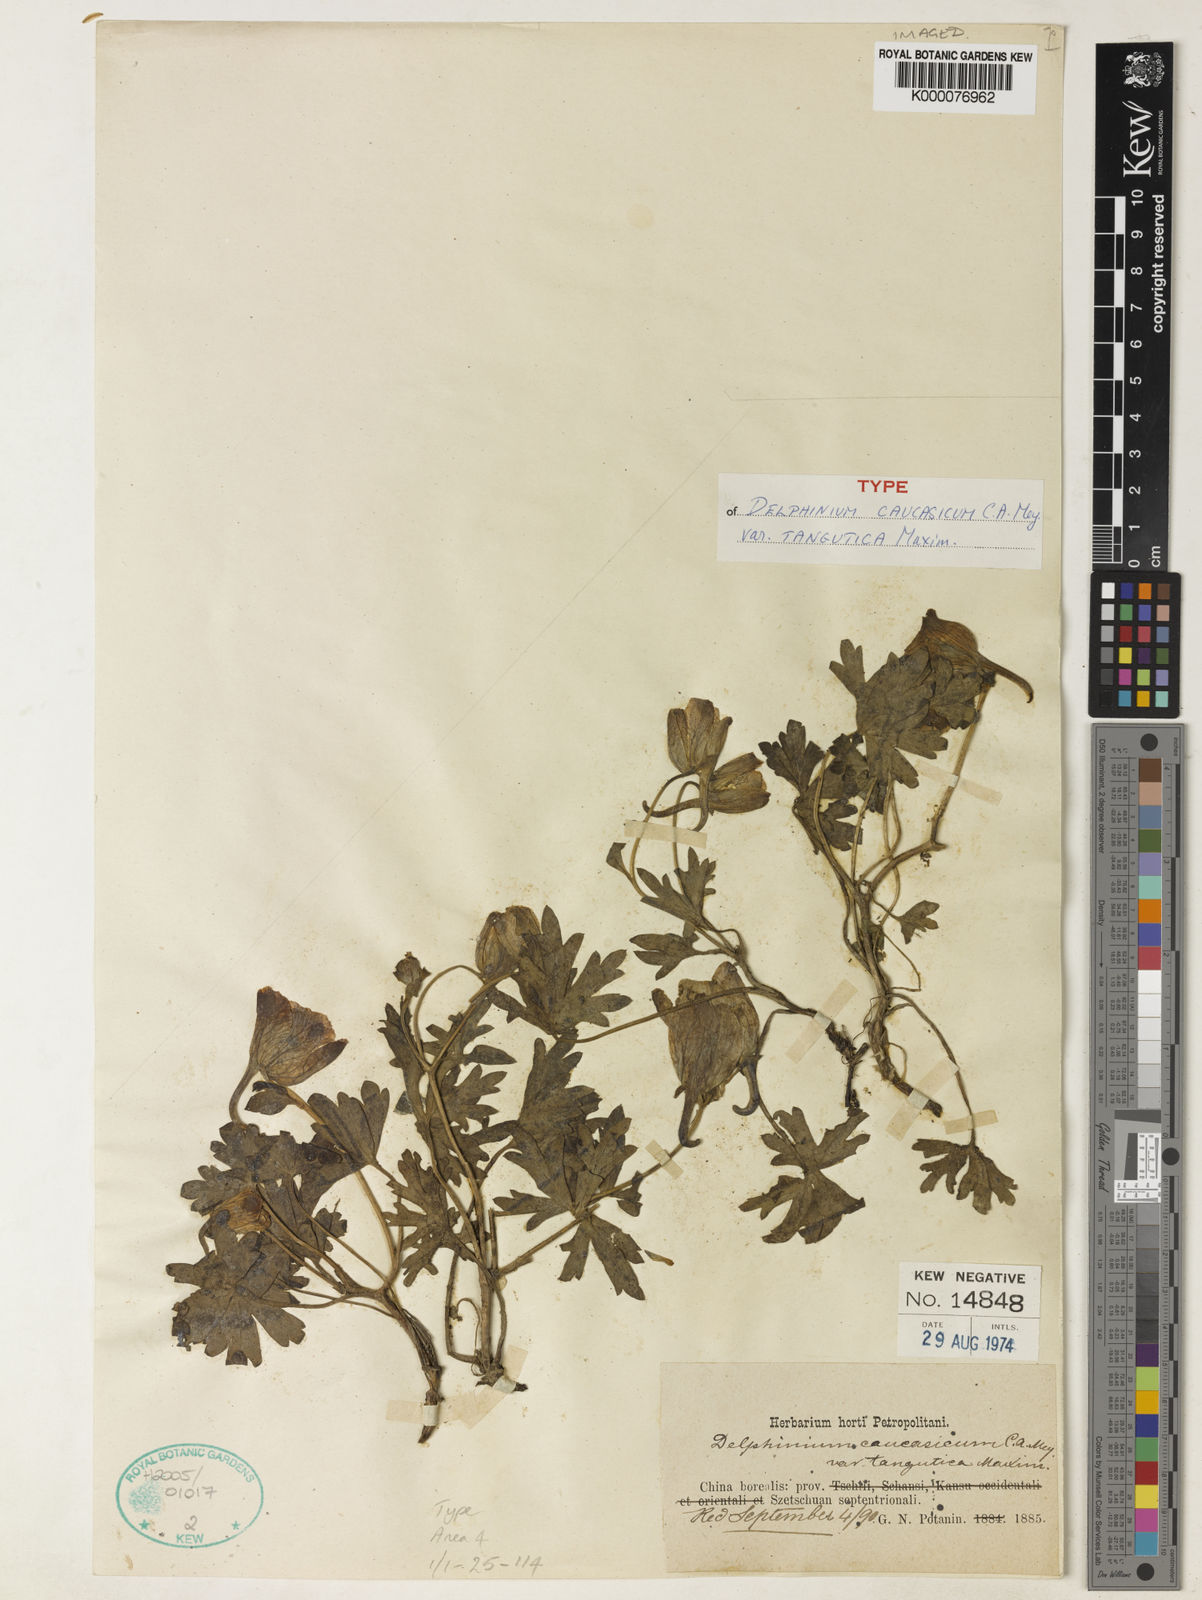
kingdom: Plantae
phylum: Tracheophyta
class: Magnoliopsida
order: Ranunculales
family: Ranunculaceae
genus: Delphinium
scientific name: Delphinium
